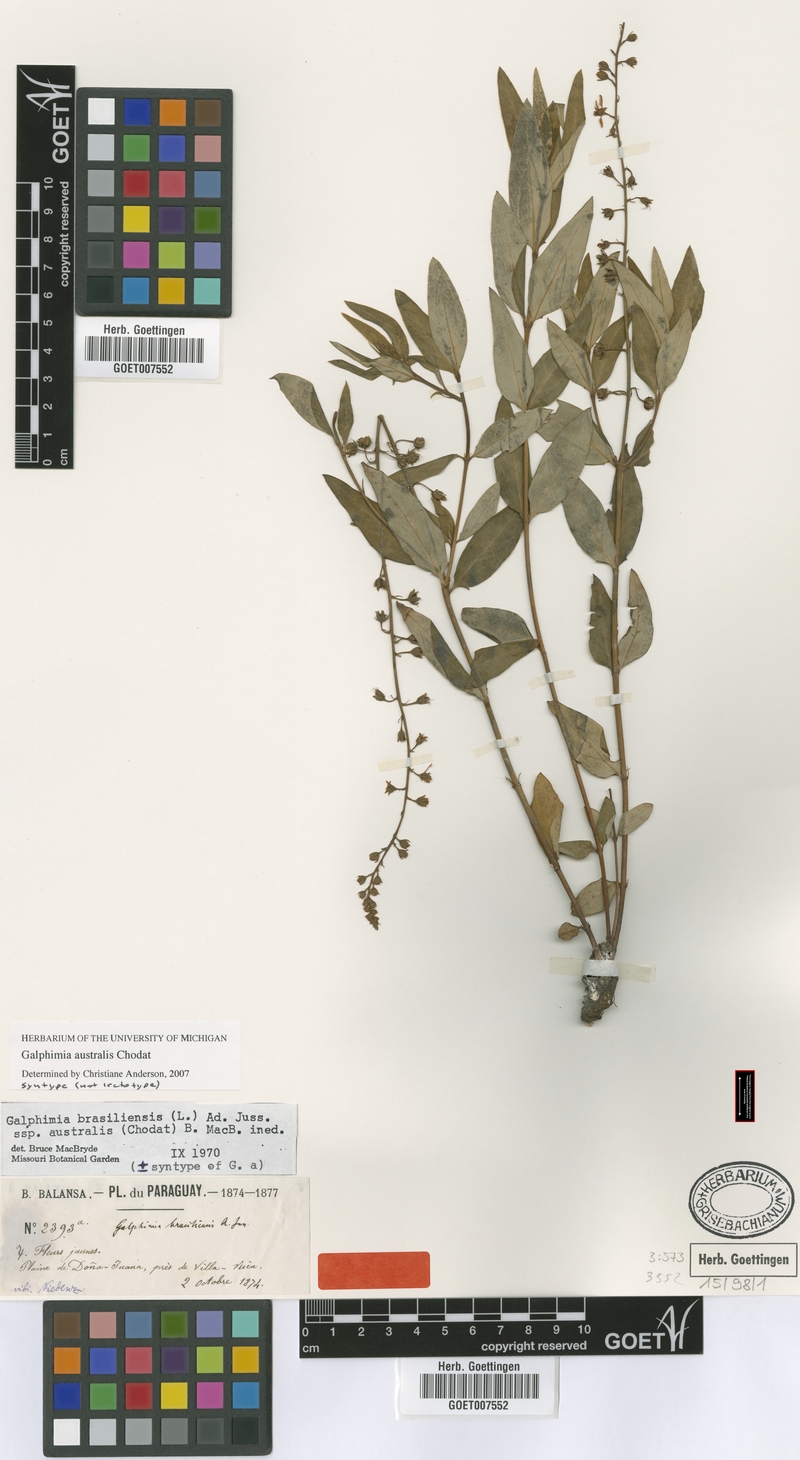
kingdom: Plantae
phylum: Tracheophyta
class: Magnoliopsida
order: Malpighiales
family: Malpighiaceae
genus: Galphimia
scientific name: Galphimia australis
